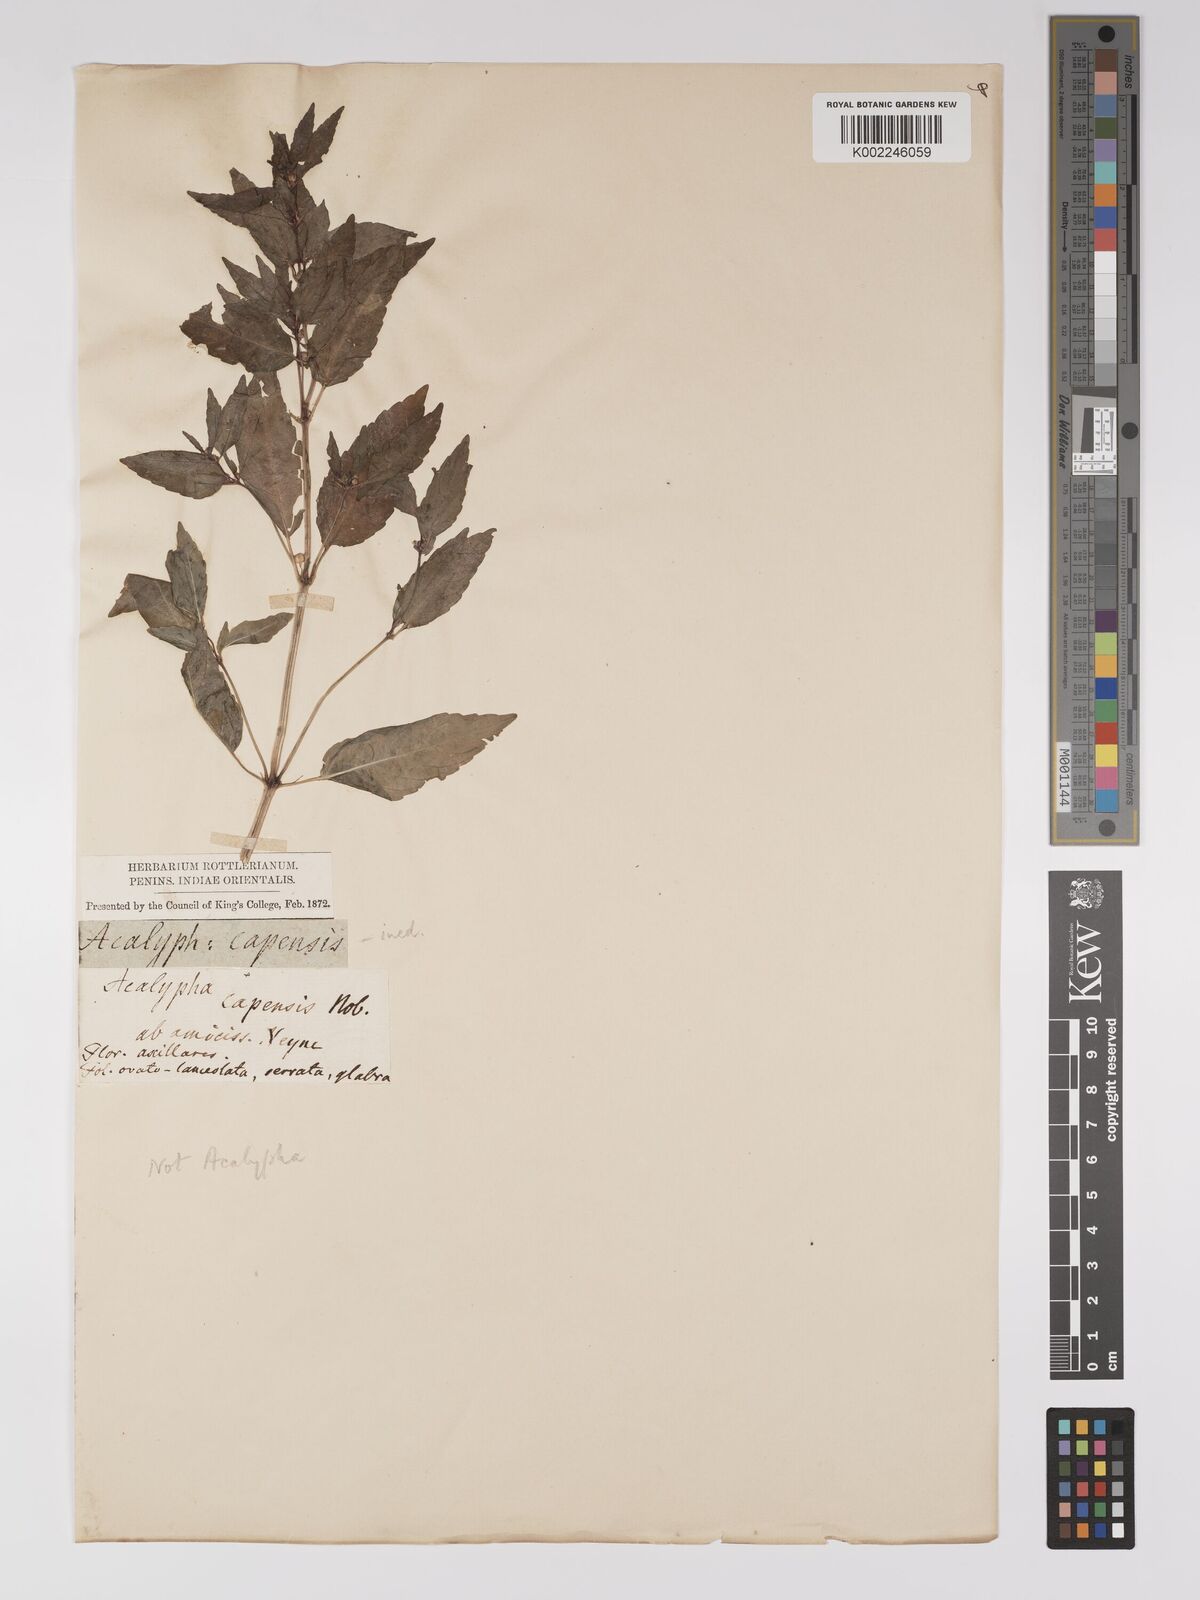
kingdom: Plantae
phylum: Tracheophyta
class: Magnoliopsida
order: Malpighiales
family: Euphorbiaceae
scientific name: Euphorbiaceae
